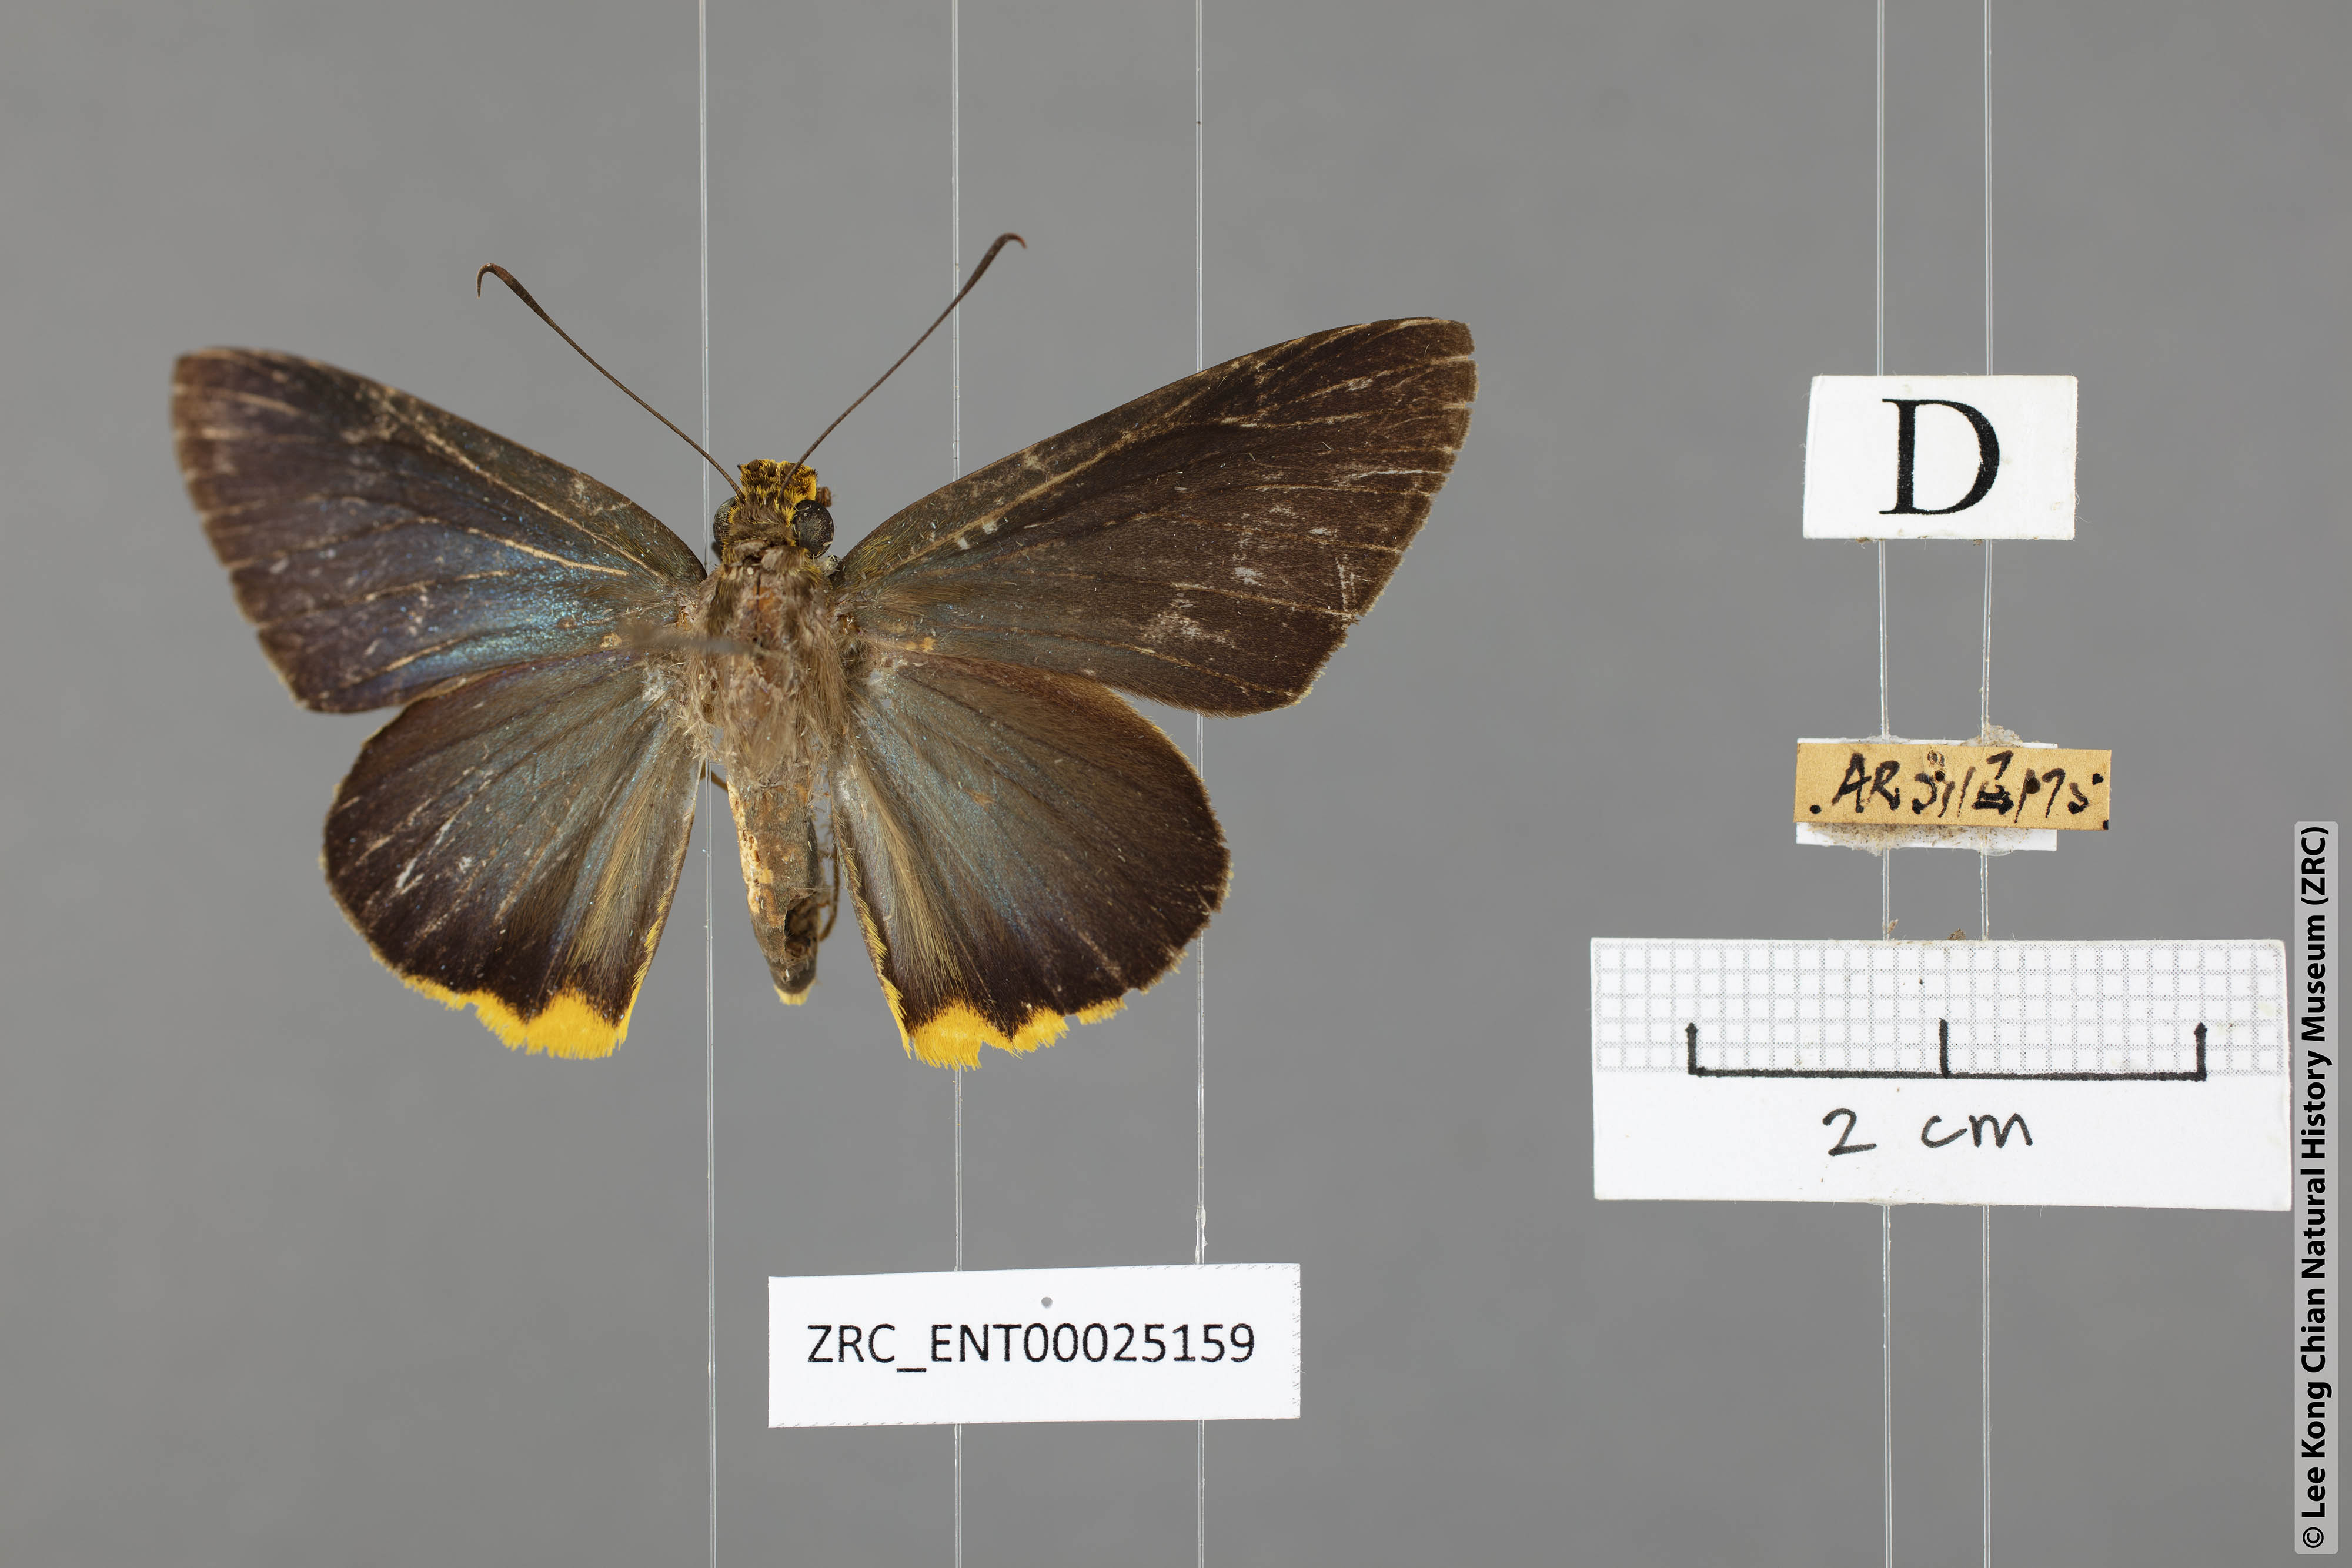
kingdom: Animalia
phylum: Arthropoda
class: Insecta
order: Lepidoptera
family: Hesperiidae
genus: Pirdana
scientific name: Pirdana distanti
